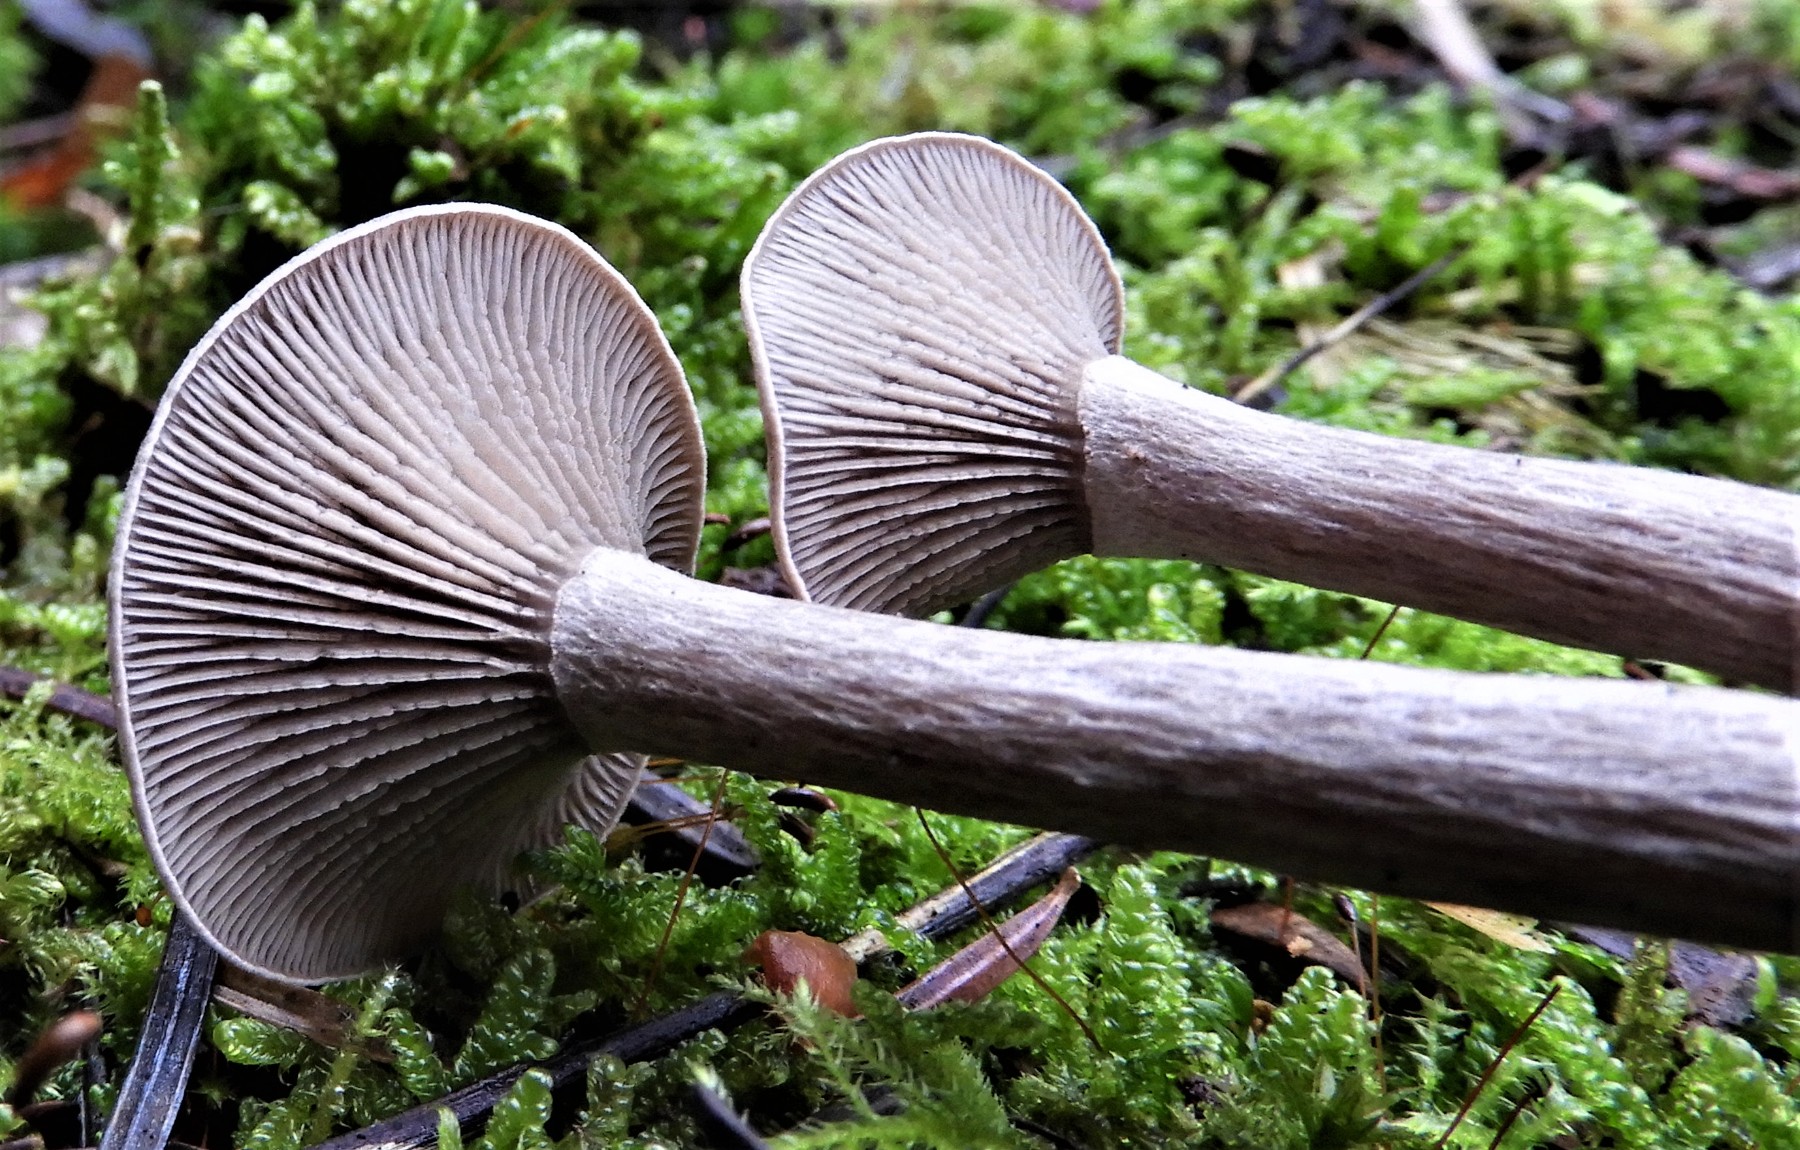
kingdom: Fungi
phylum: Basidiomycota
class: Agaricomycetes
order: Agaricales
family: Pseudoclitocybaceae
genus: Pseudoclitocybe
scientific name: Pseudoclitocybe cyathiformis
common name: almindelig bægertragthat
